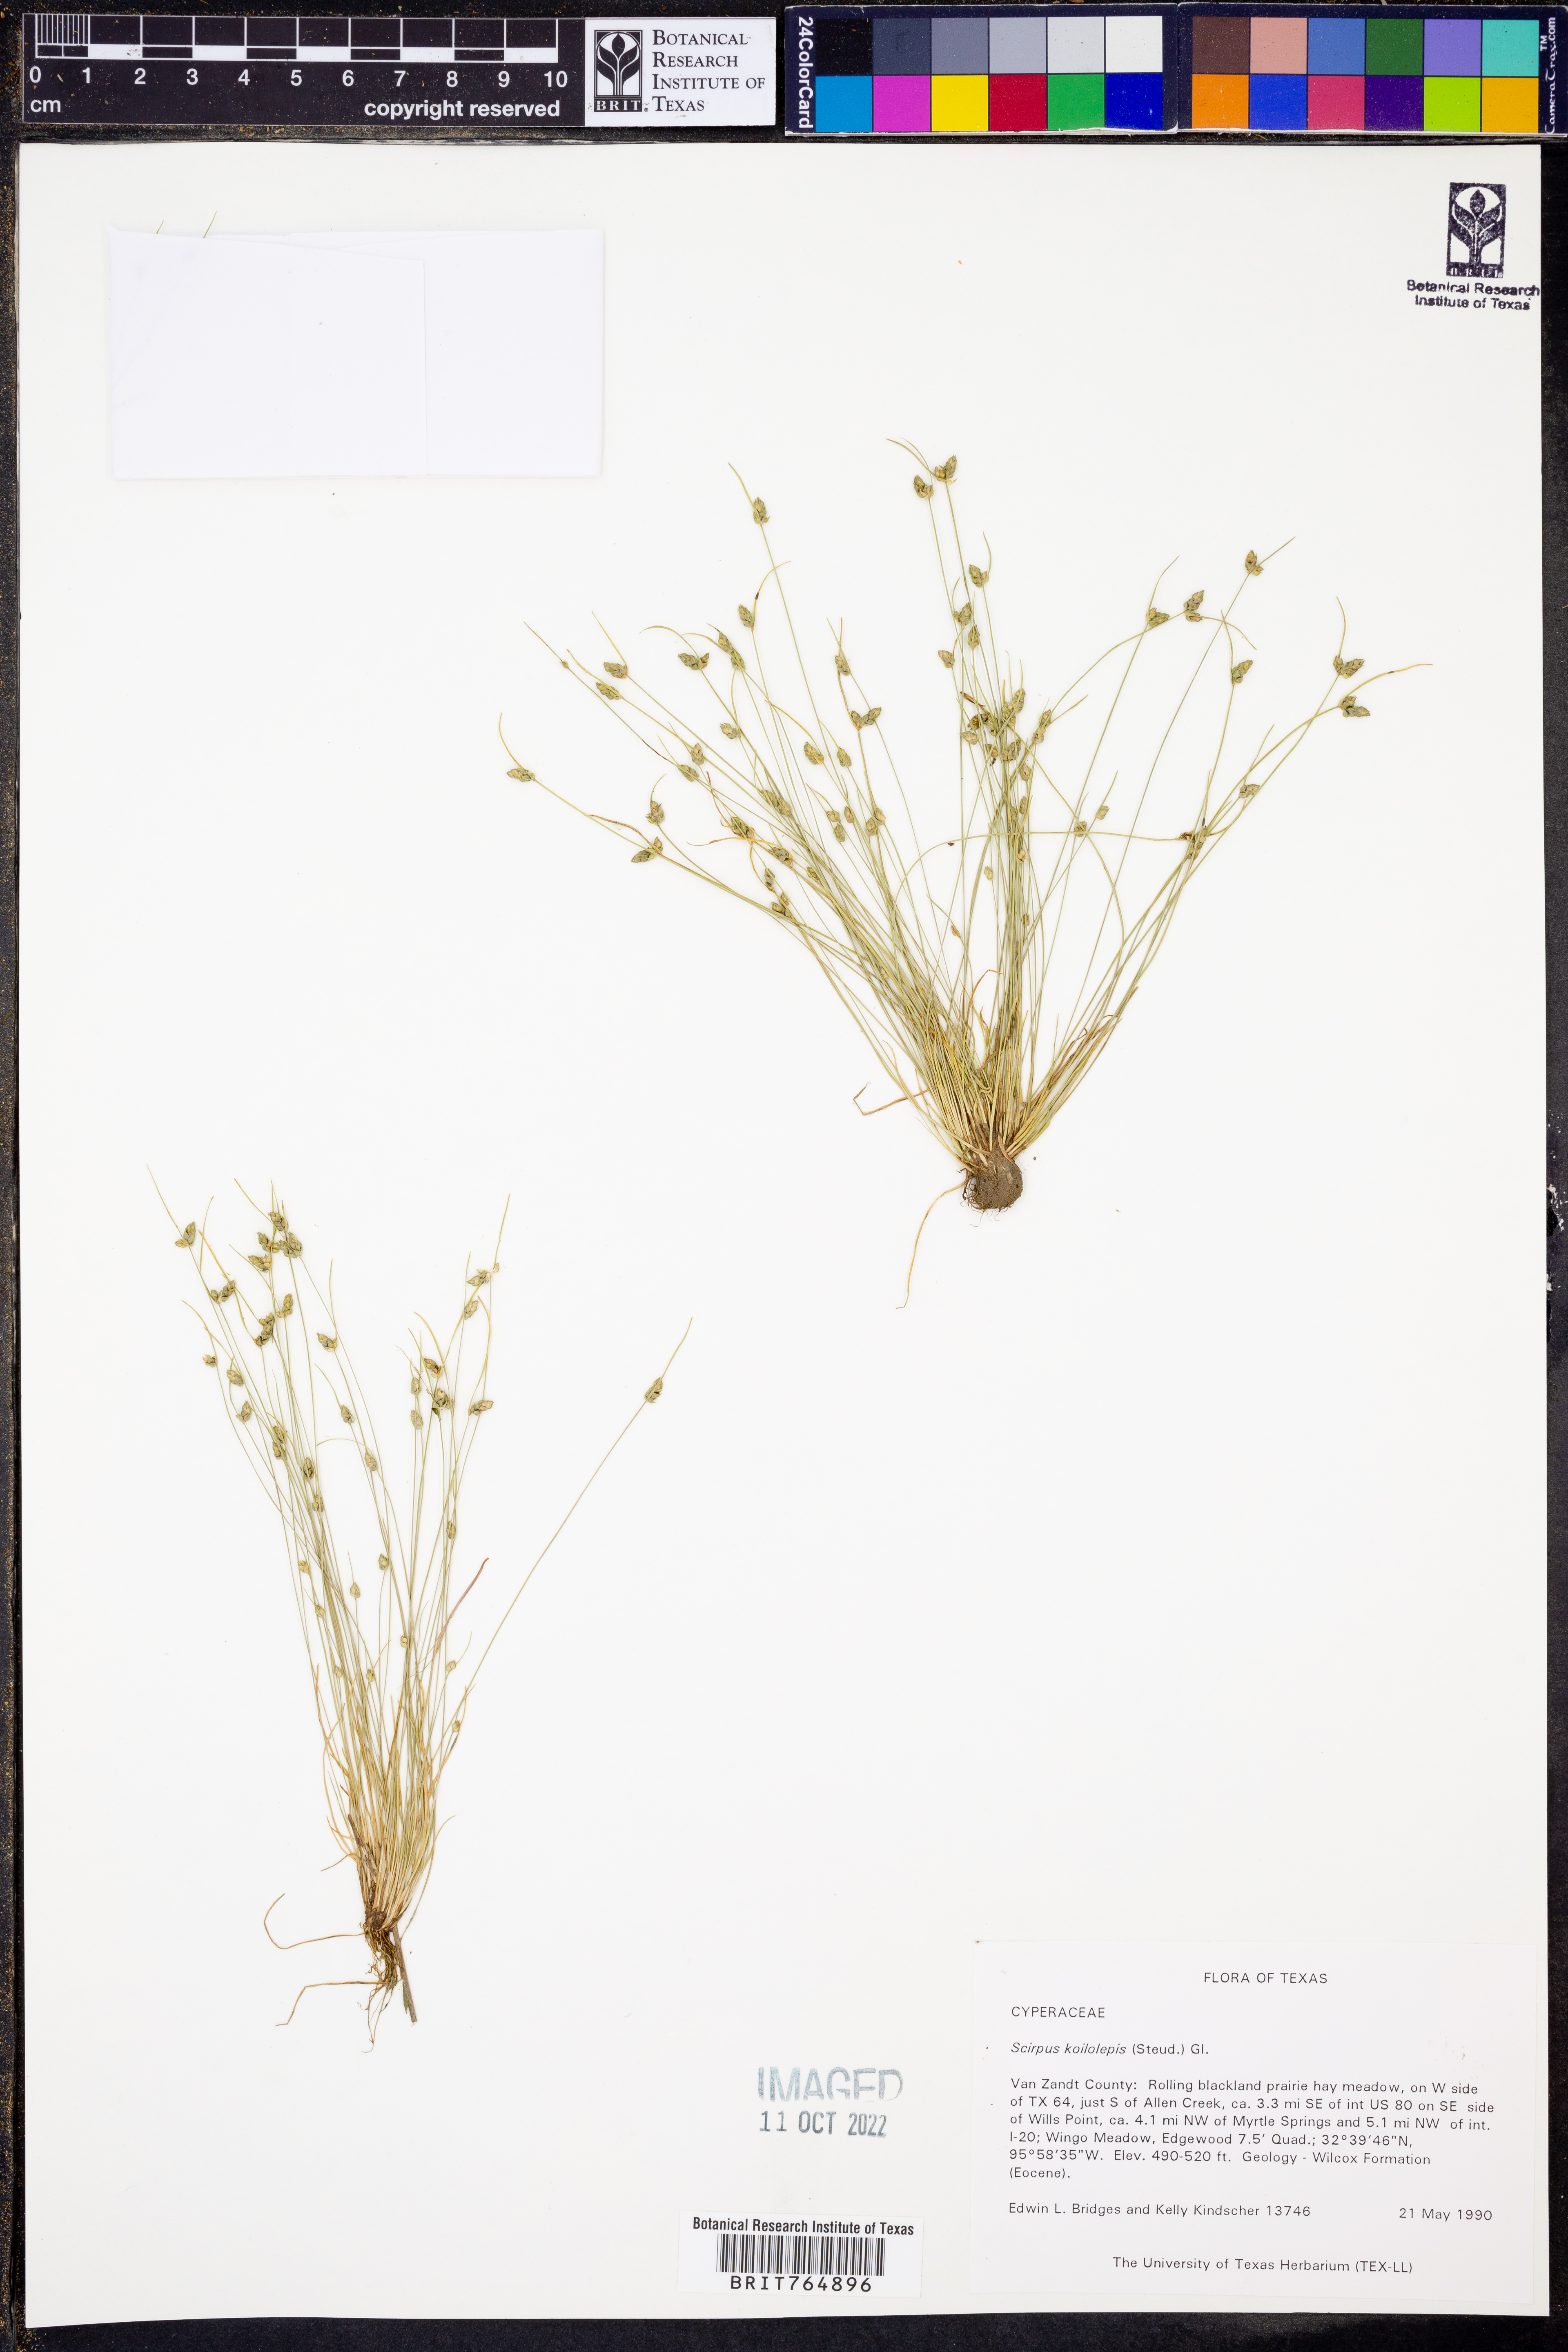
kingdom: Plantae
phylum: Tracheophyta
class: Liliopsida
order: Poales
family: Cyperaceae
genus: Isolepis
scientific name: Isolepis carinata
